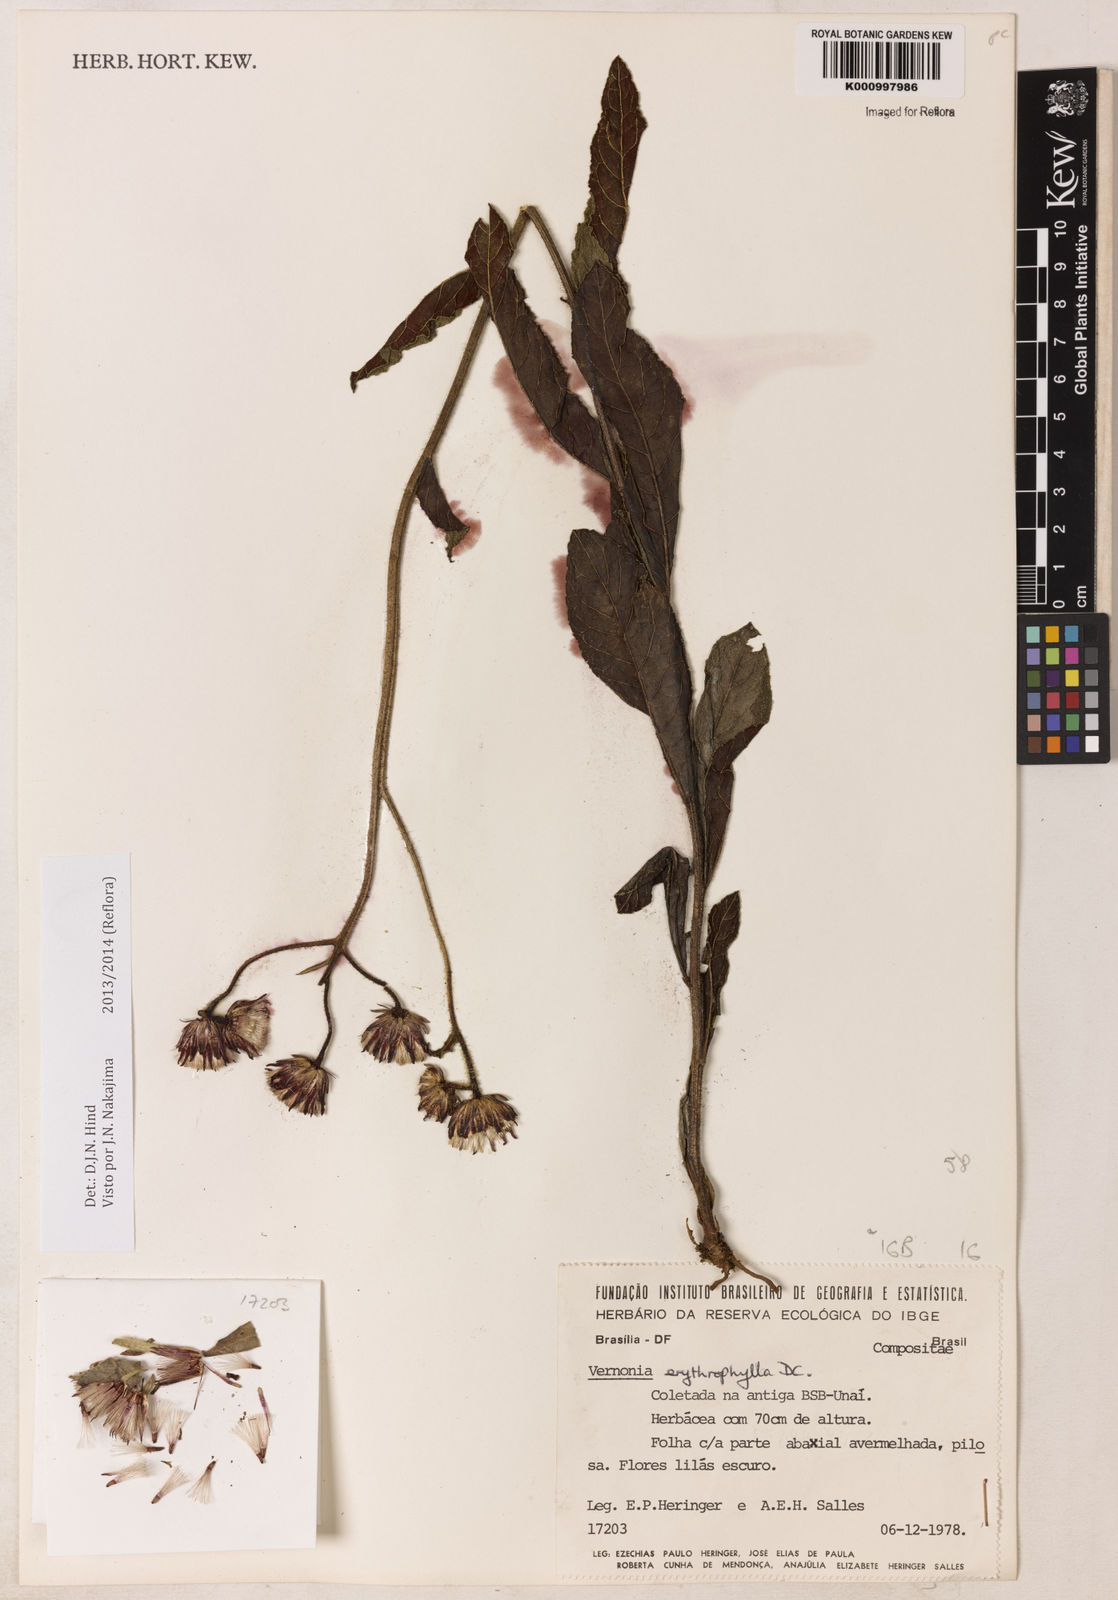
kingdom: Plantae
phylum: Tracheophyta
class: Magnoliopsida
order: Asterales
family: Asteraceae
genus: Lessingianthus
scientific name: Lessingianthus erythrophilus
